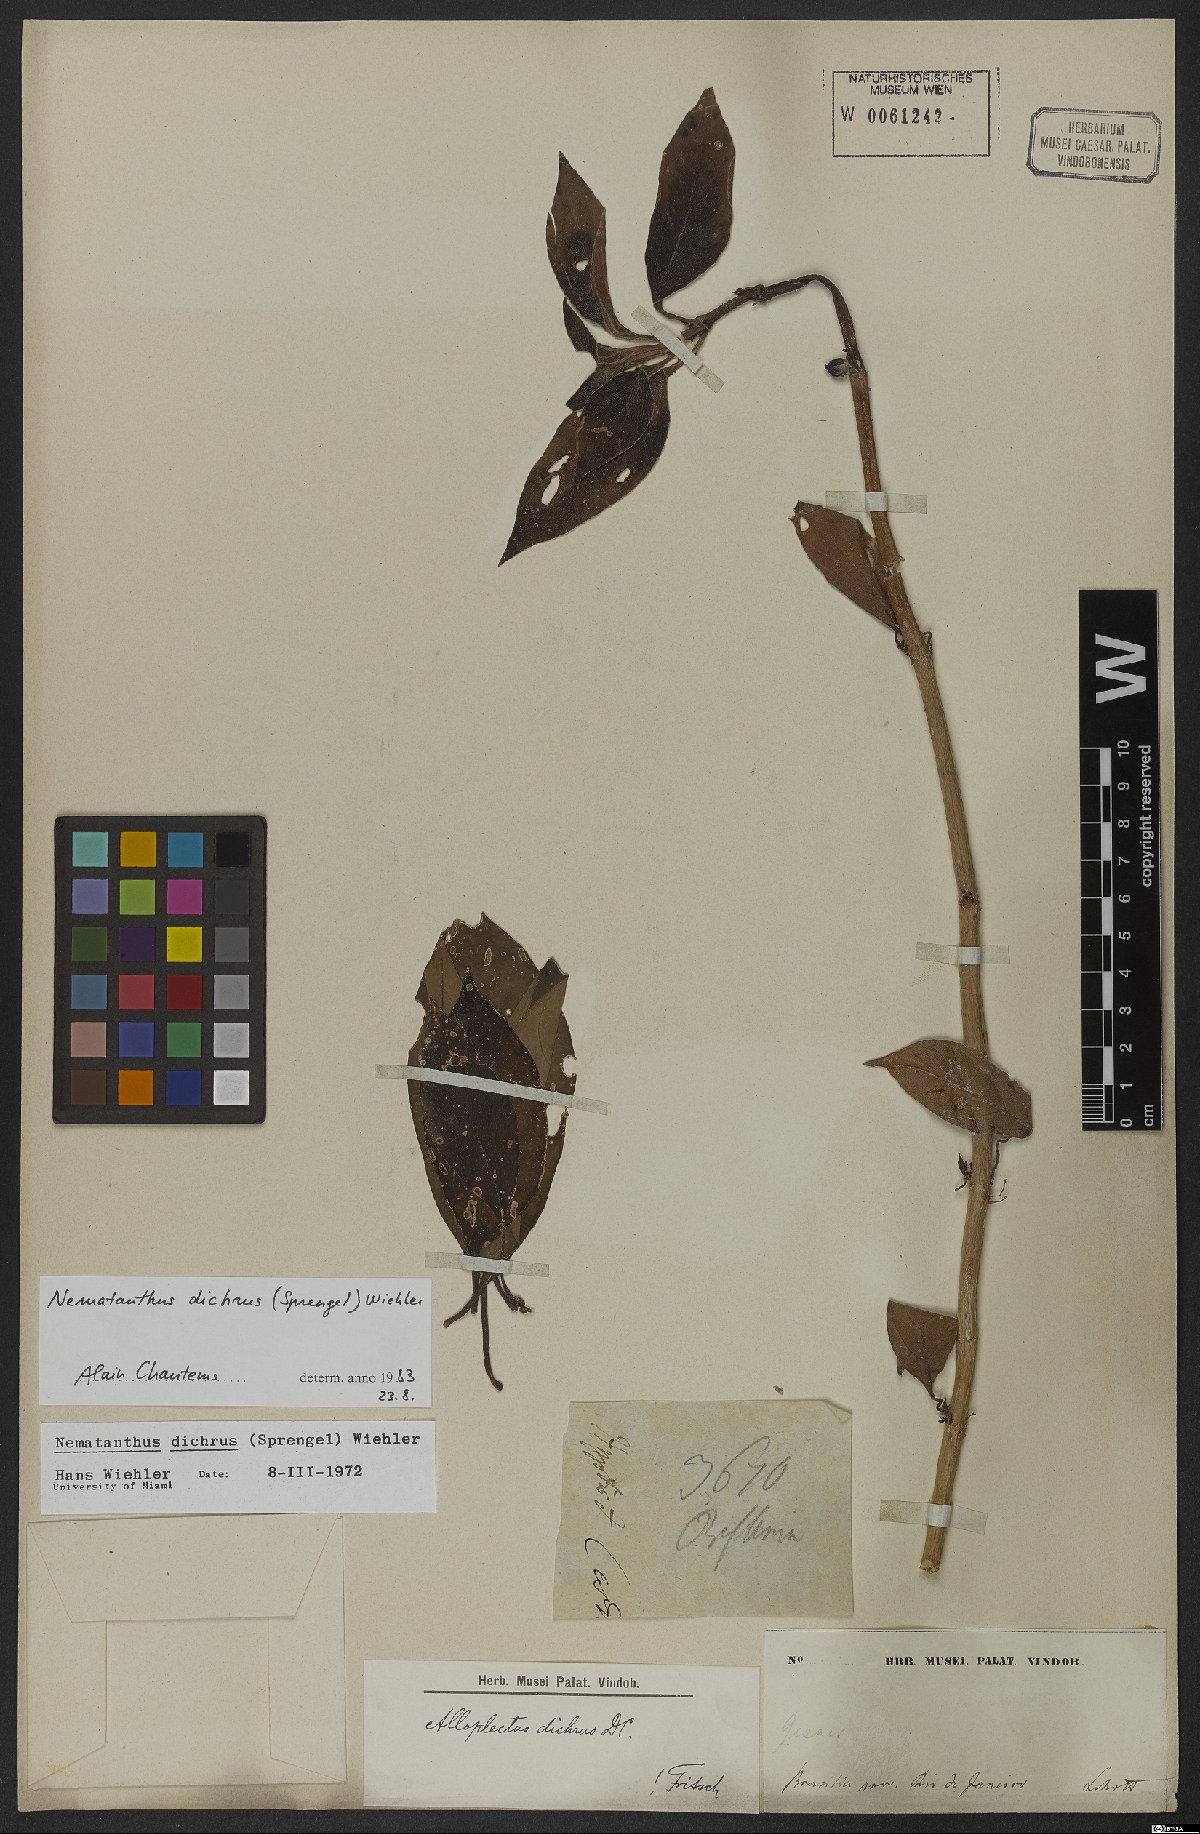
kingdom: Plantae
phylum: Tracheophyta
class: Magnoliopsida
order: Lamiales
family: Gesneriaceae
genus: Nematanthus
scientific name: Nematanthus lanceolatus
